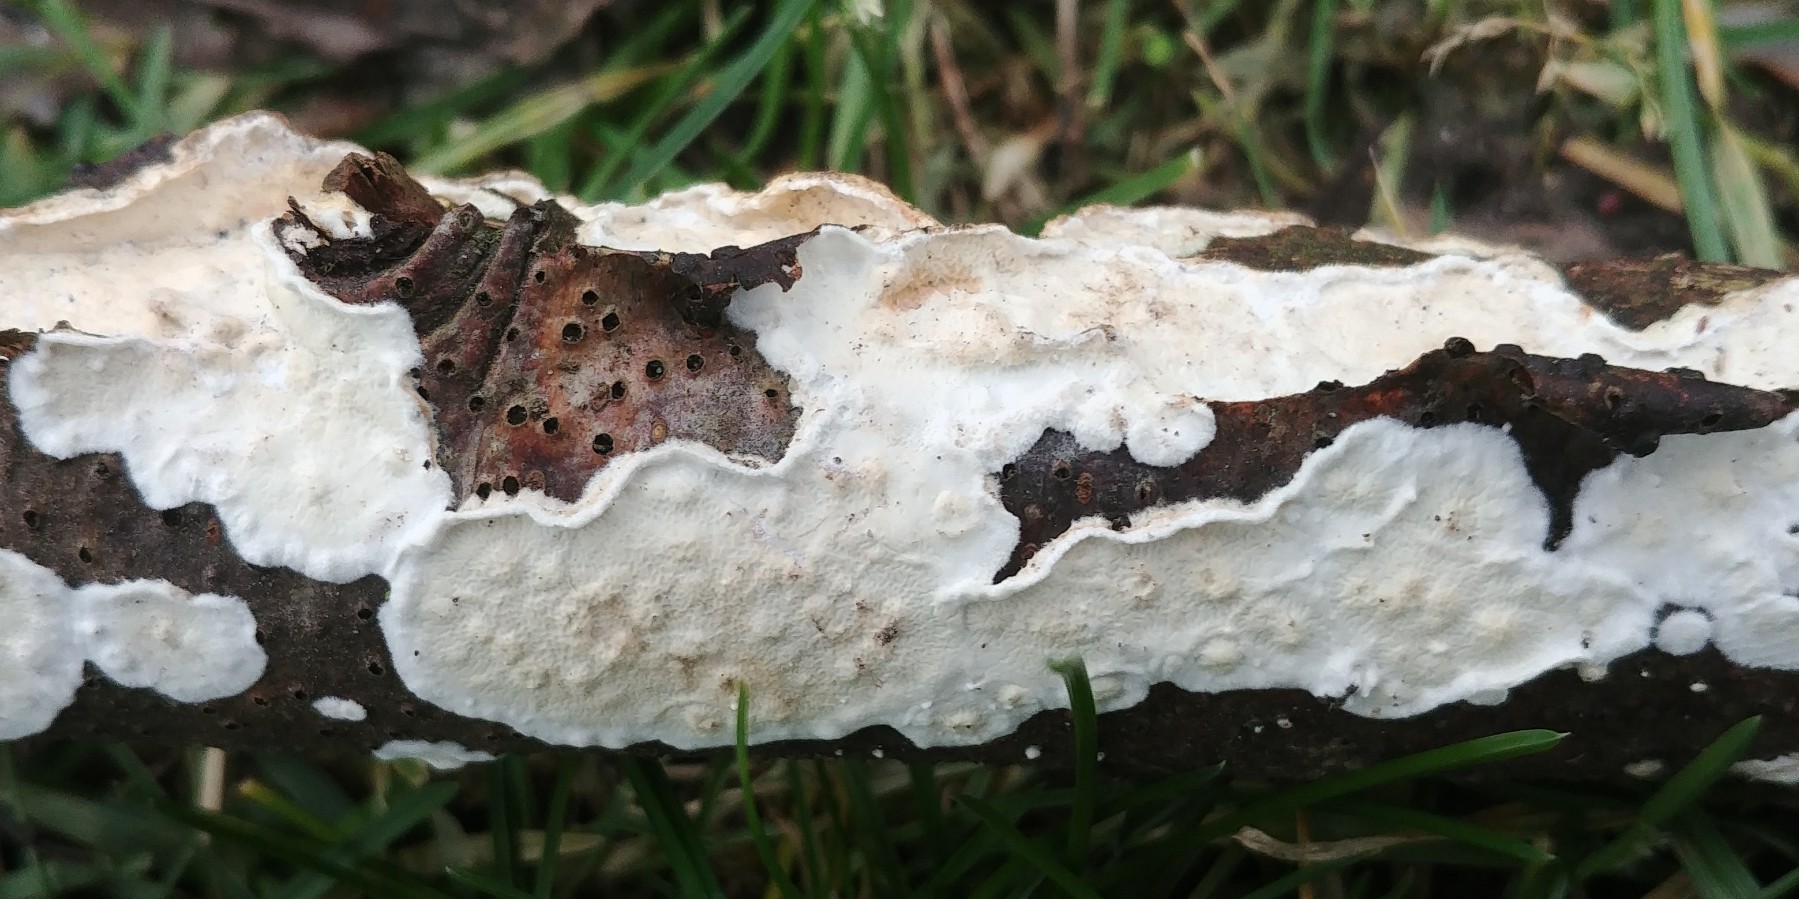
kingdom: Fungi
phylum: Basidiomycota
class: Agaricomycetes
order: Polyporales
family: Irpicaceae
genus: Byssomerulius
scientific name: Byssomerulius corium
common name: læder-åresvamp
